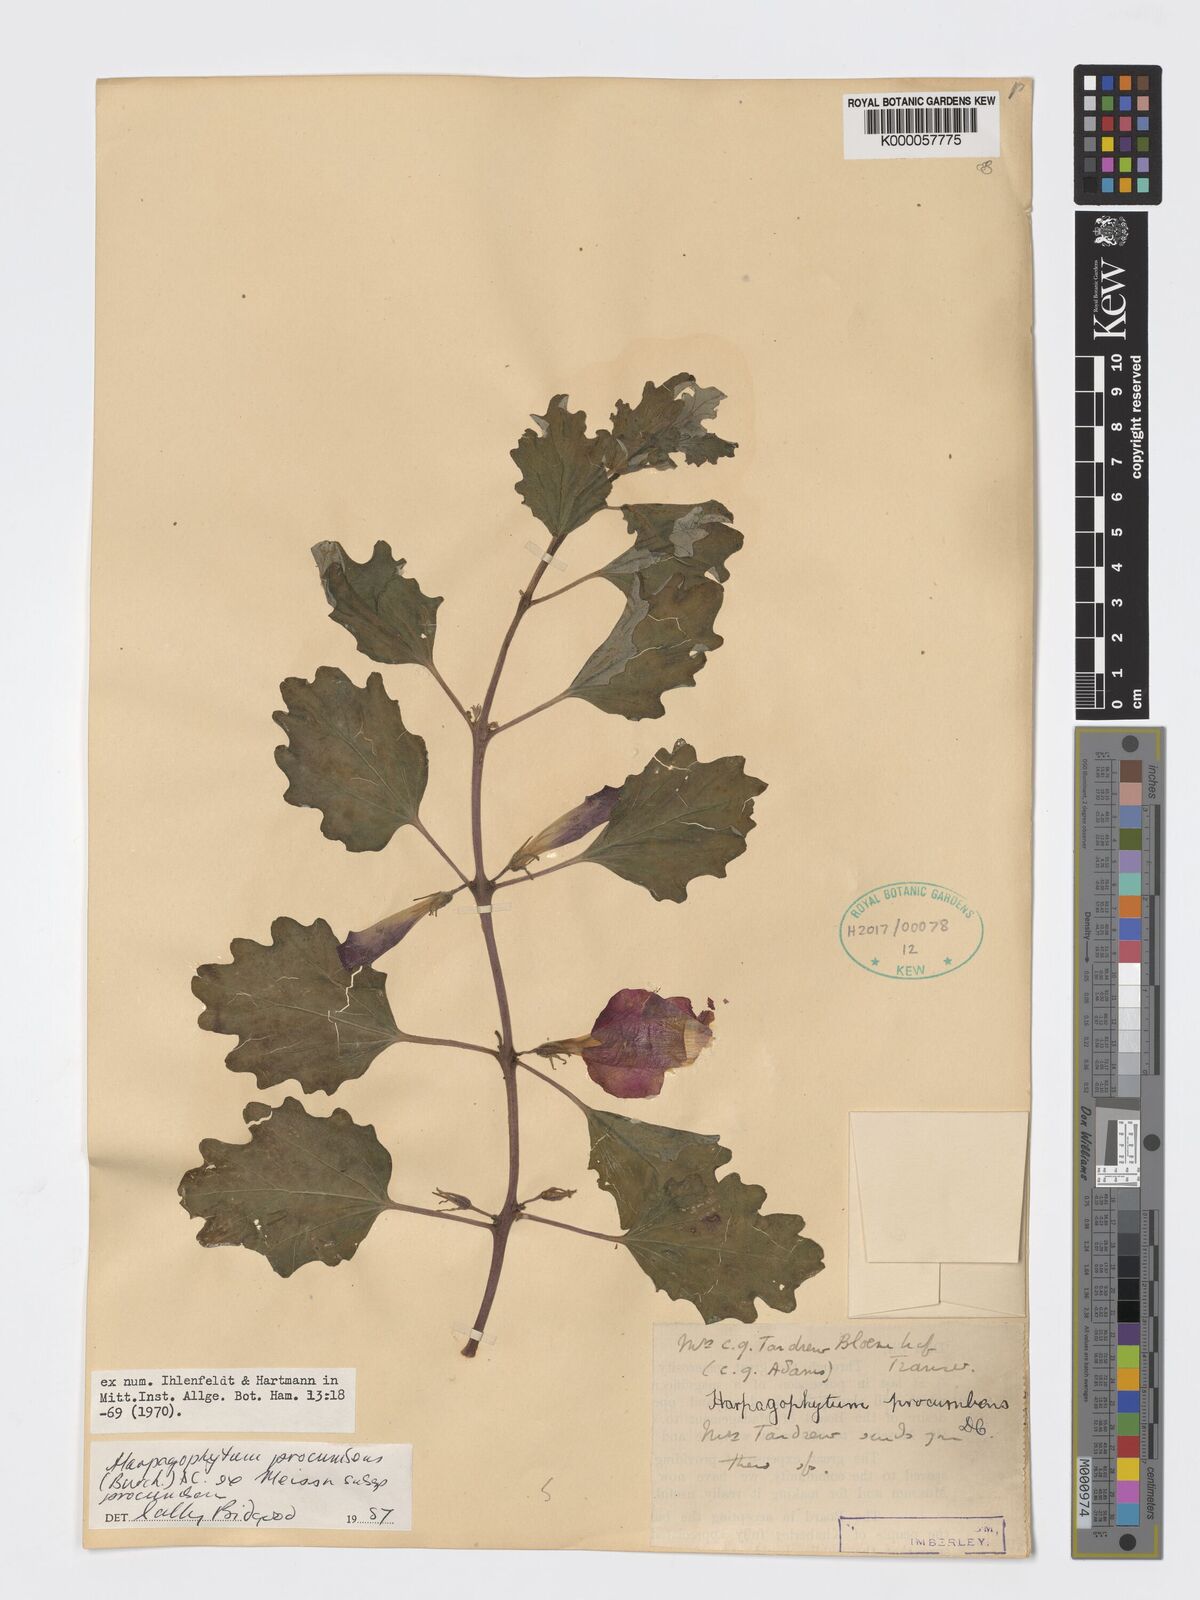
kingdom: Plantae
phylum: Tracheophyta
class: Magnoliopsida
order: Lamiales
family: Pedaliaceae
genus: Harpagophytum
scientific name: Harpagophytum procumbens
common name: Grappleplant
